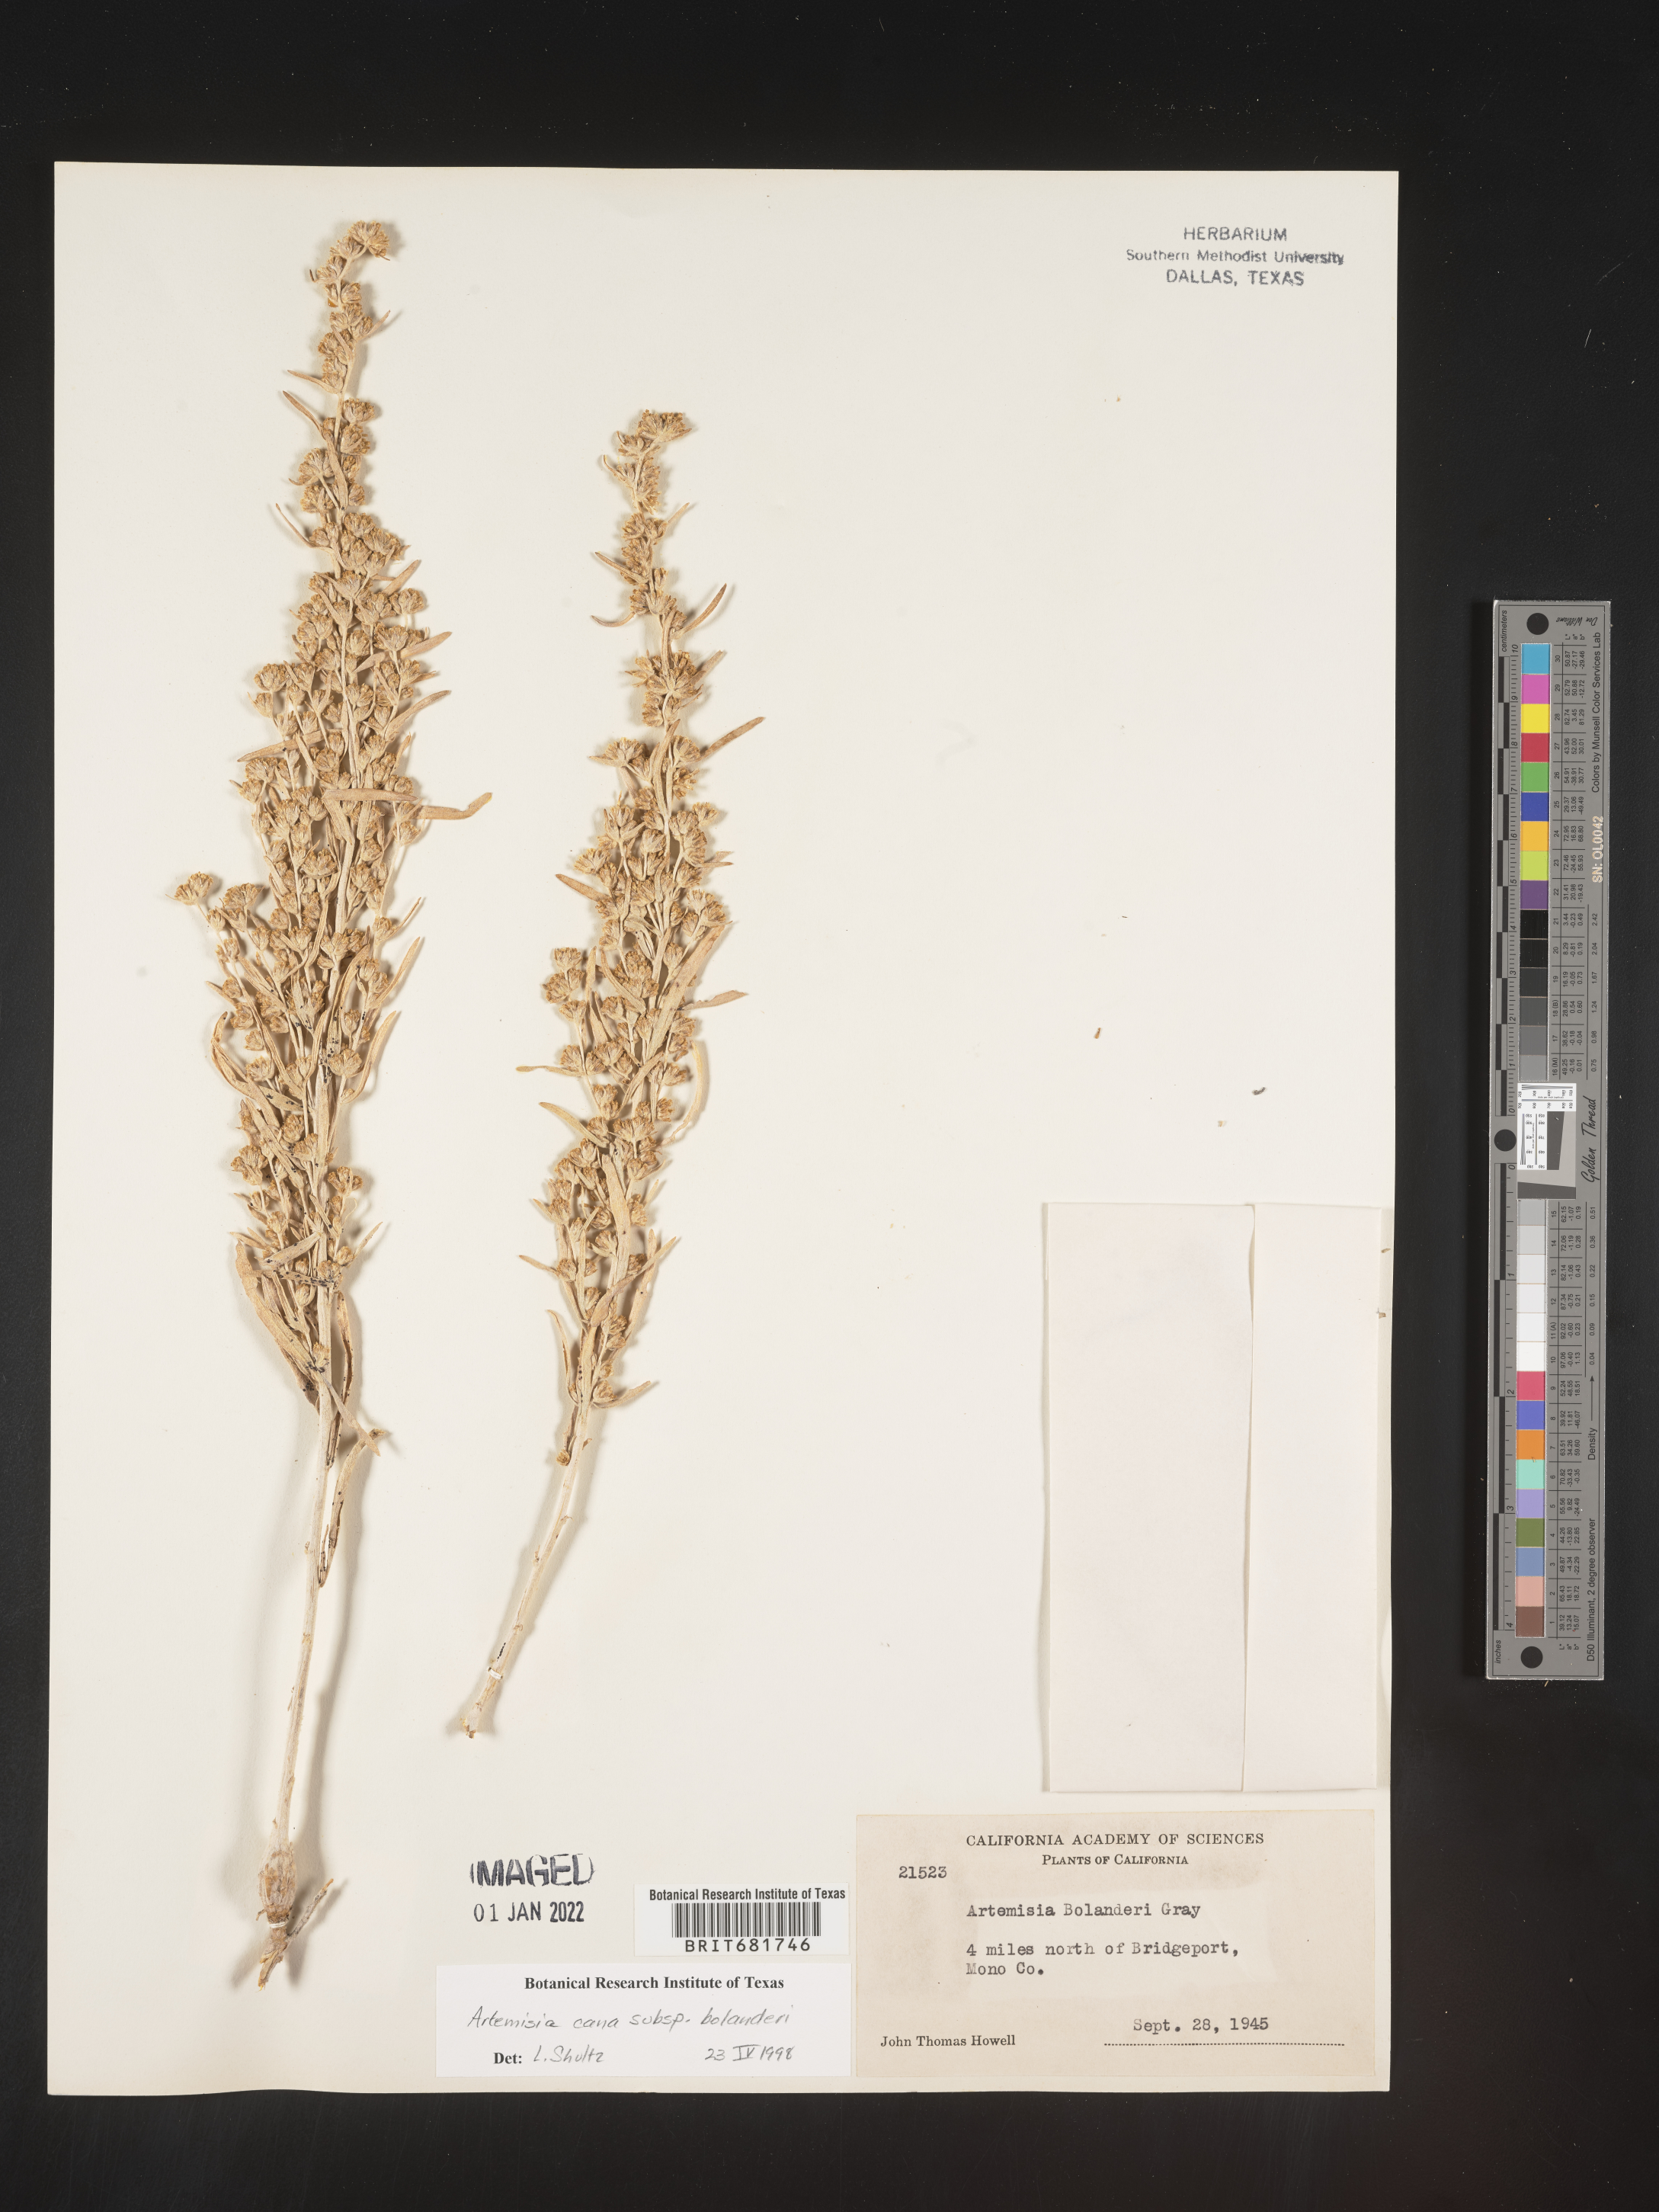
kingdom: Plantae
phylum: Tracheophyta
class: Magnoliopsida
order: Asterales
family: Asteraceae
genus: Artemisia
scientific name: Artemisia cana
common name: Silver sagebrush
